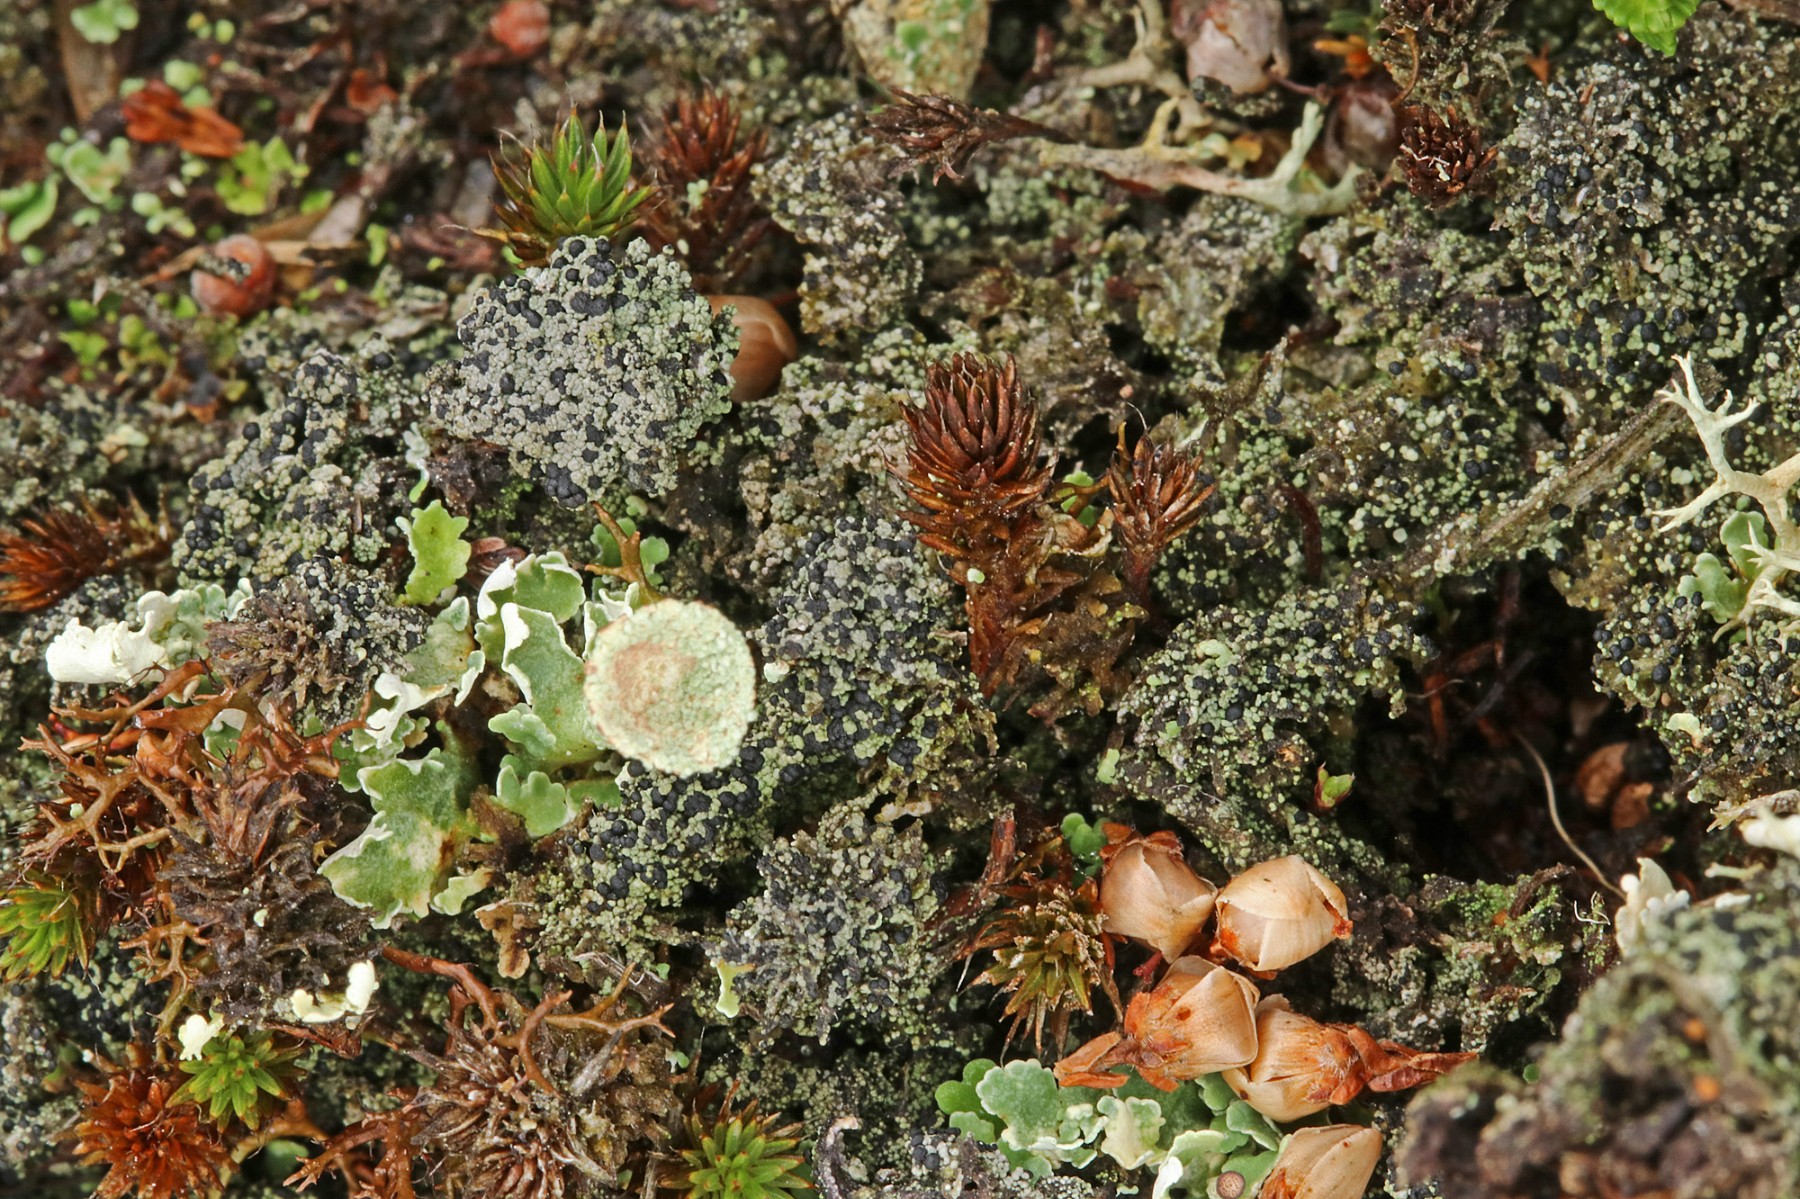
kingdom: Fungi
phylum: Ascomycota
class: Lecanoromycetes
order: Lecanorales
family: Byssolomataceae
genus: Micarea
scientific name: Micarea lignaria
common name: tørve-knaplav
